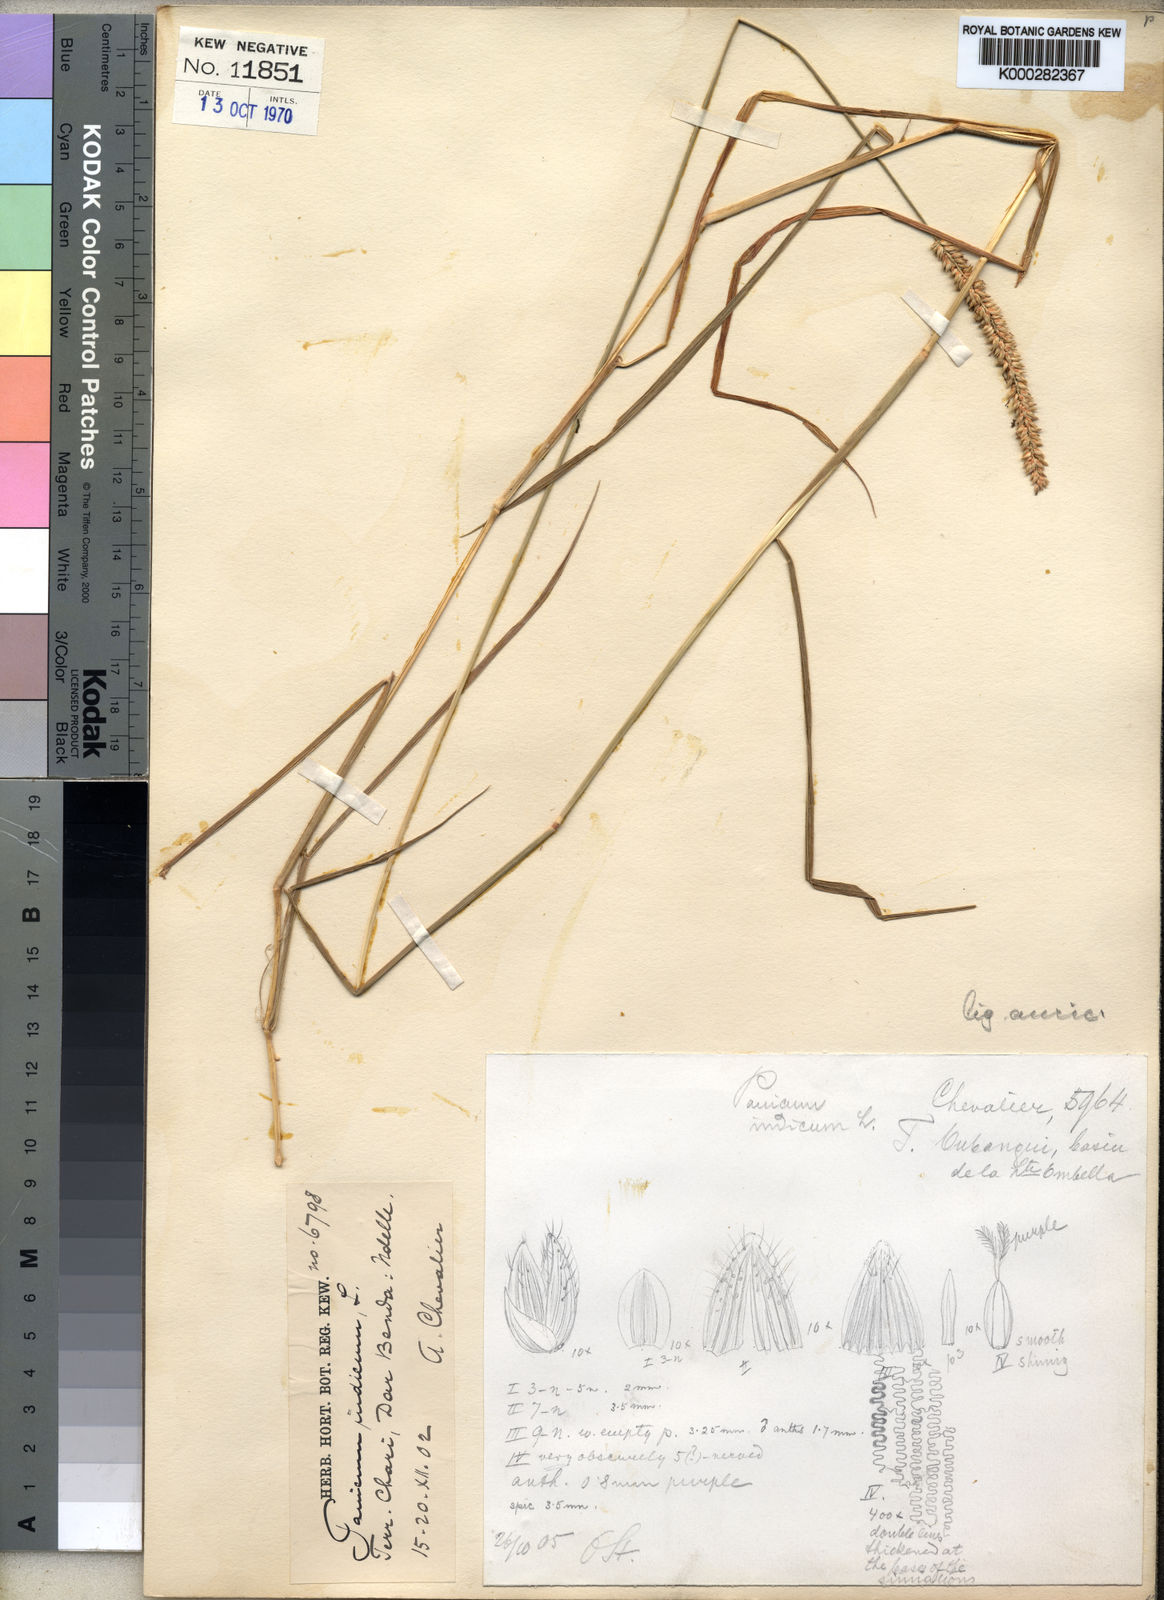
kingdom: Plantae
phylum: Tracheophyta
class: Liliopsida
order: Poales
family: Poaceae
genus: Sacciolepis
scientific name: Sacciolepis indica
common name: Glenwoodgrass
